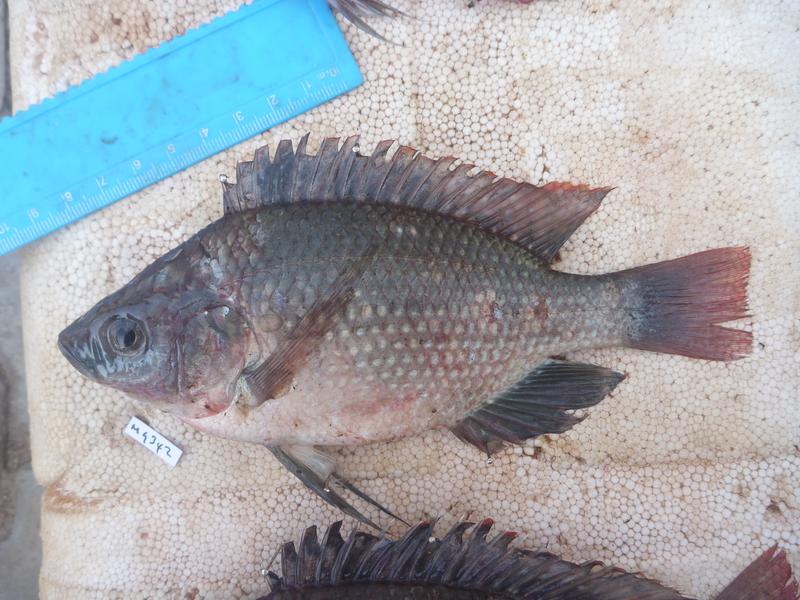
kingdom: Animalia
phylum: Chordata
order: Perciformes
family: Cichlidae
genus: Oreochromis
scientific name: Oreochromis esculentus
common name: Carp
